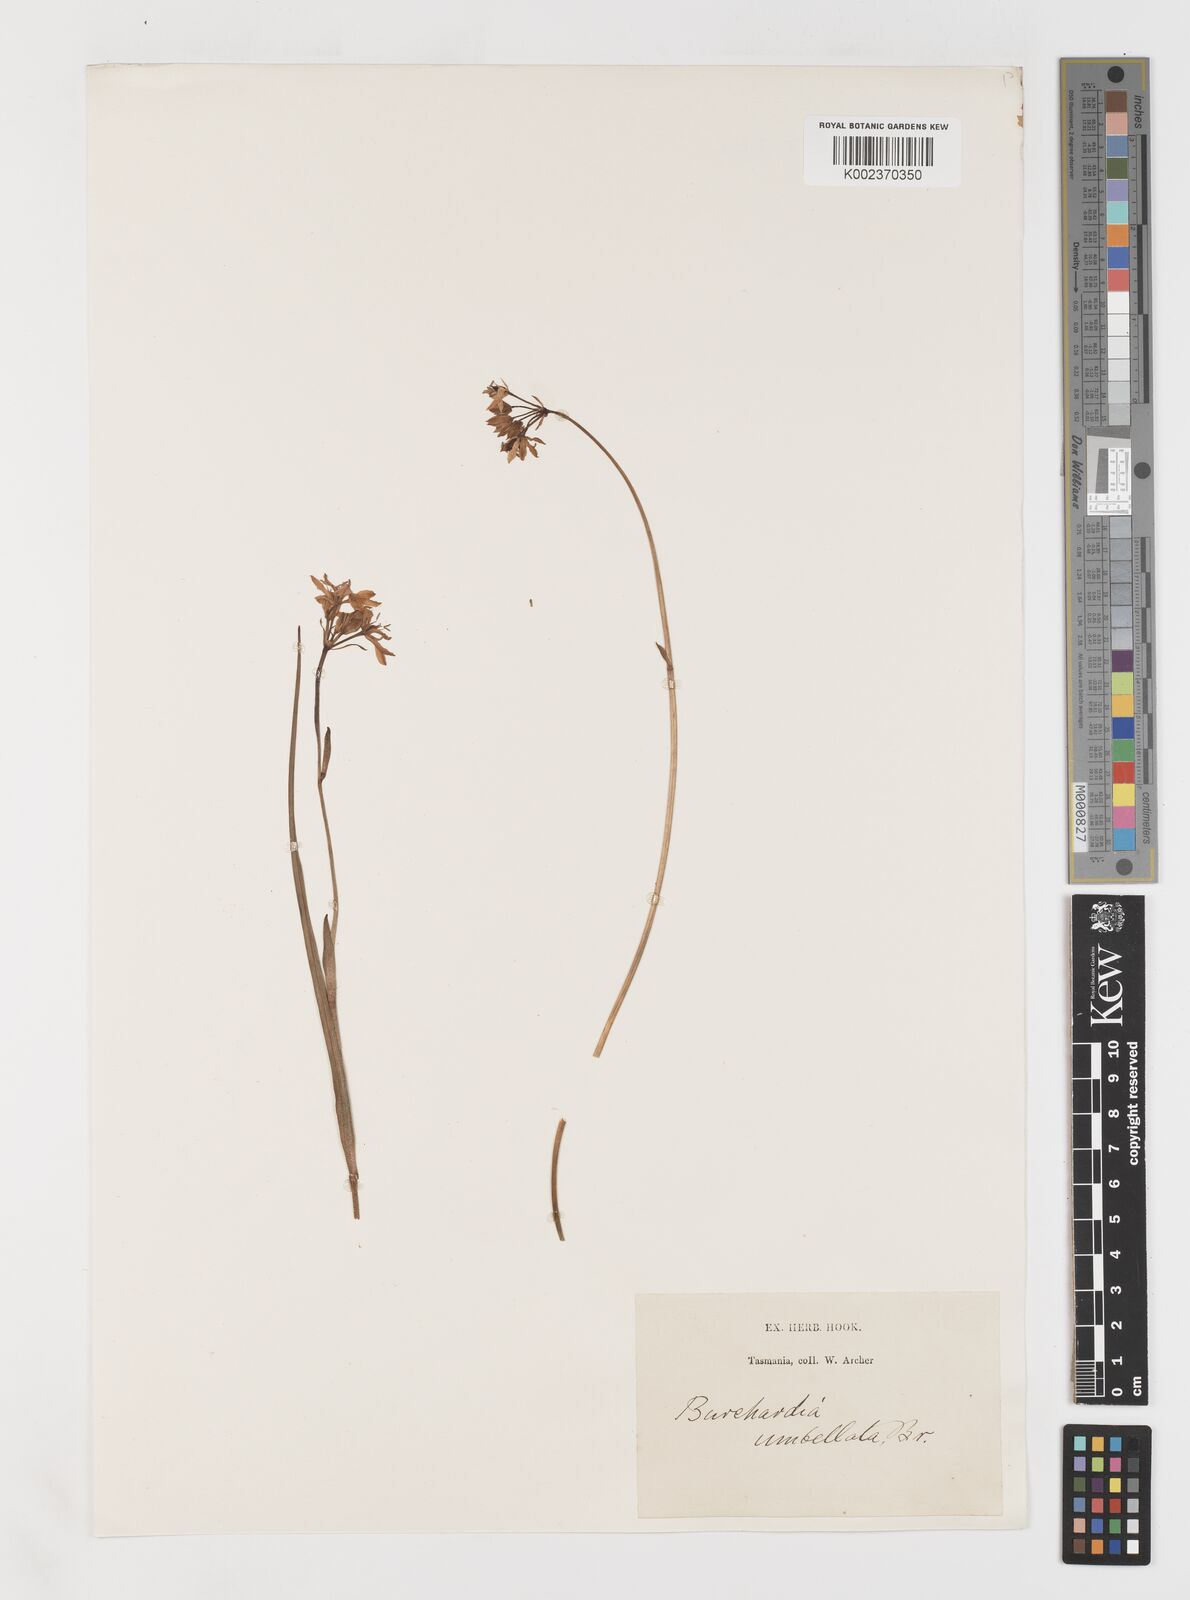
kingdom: Plantae
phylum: Tracheophyta
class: Liliopsida
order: Liliales
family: Colchicaceae
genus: Burchardia
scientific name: Burchardia umbellata
